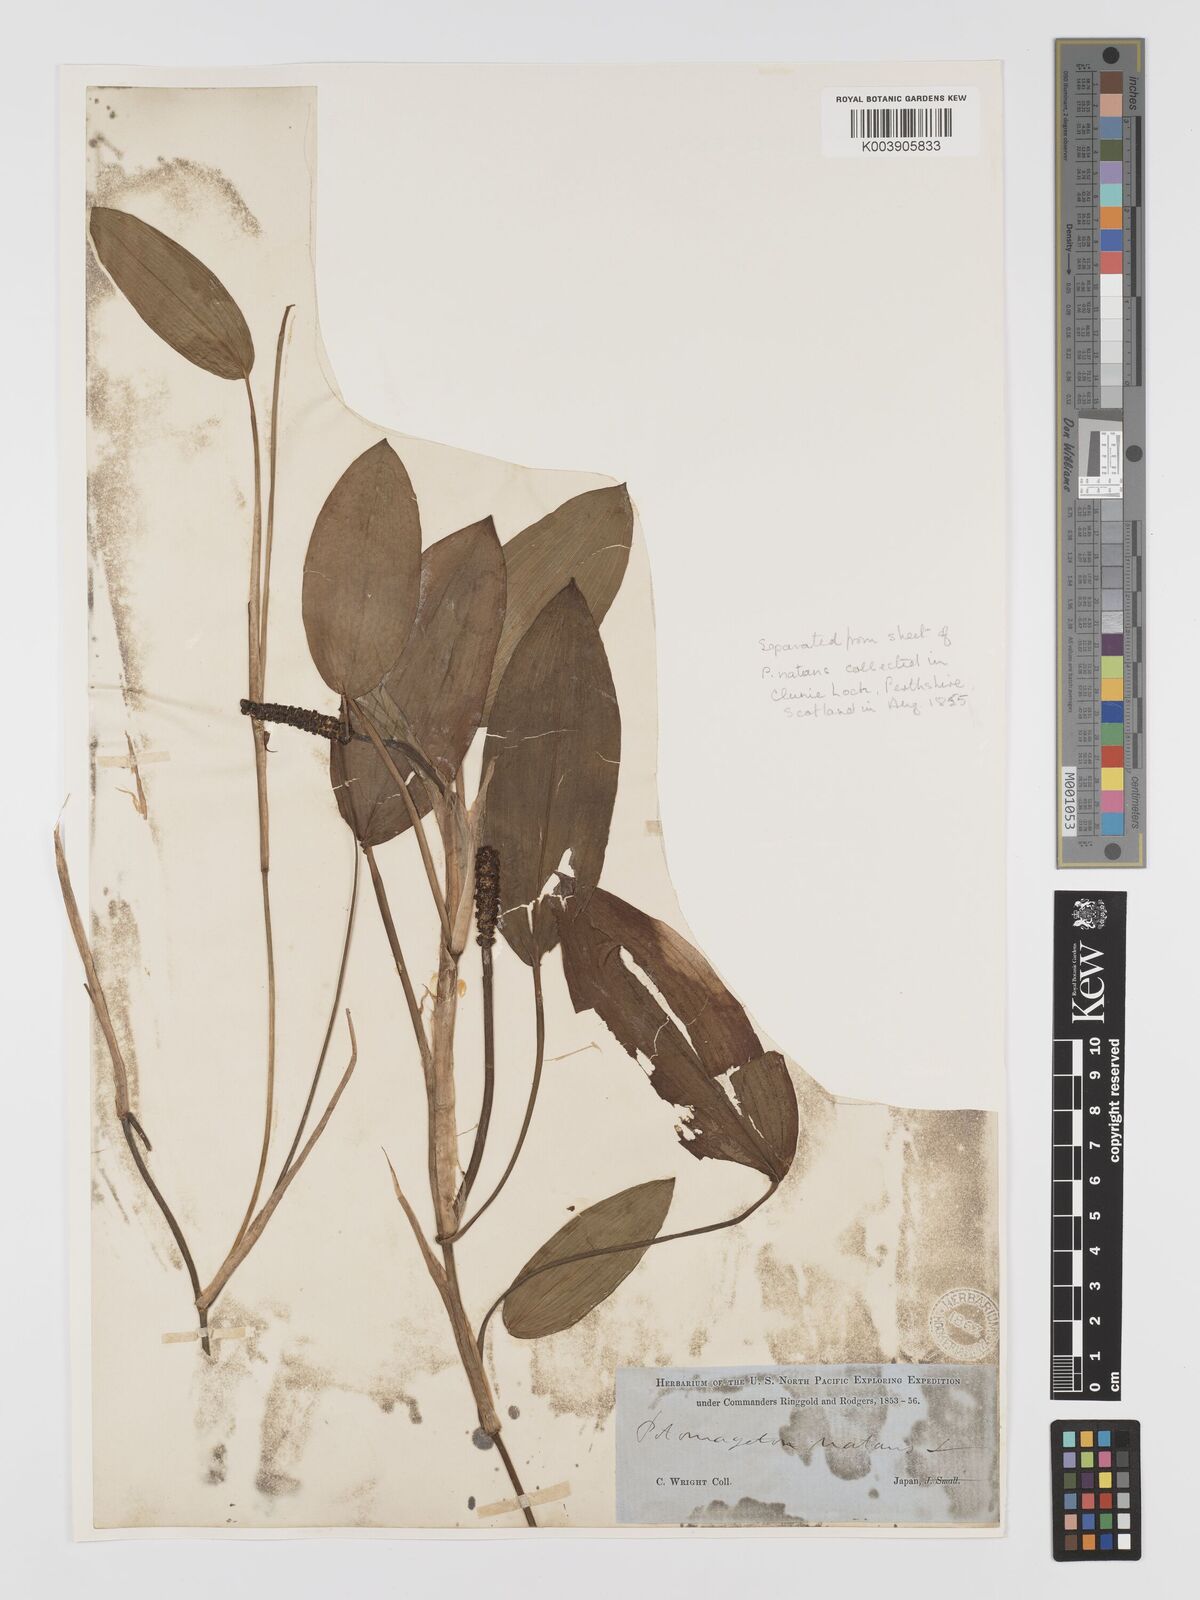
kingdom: Plantae
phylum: Tracheophyta
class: Liliopsida
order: Alismatales
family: Potamogetonaceae
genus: Potamogeton
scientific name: Potamogeton natans
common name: Broad-leaved pondweed
